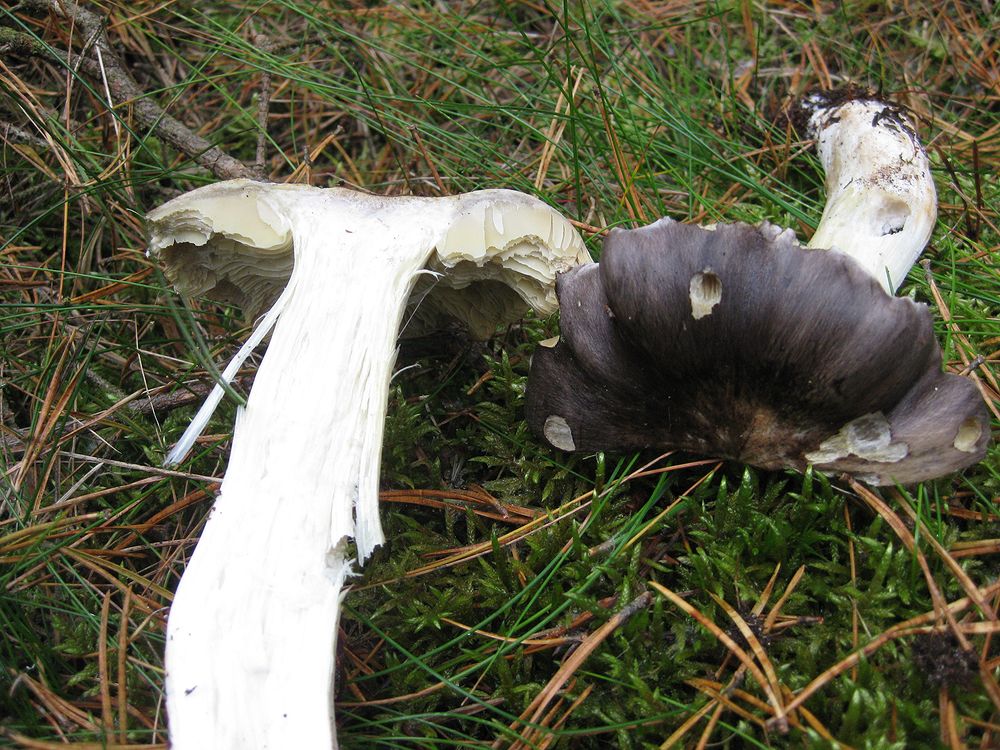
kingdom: Fungi
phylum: Basidiomycota
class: Agaricomycetes
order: Agaricales
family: Tricholomataceae
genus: Tricholoma
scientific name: Tricholoma portentosum
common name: grå ridderhat
